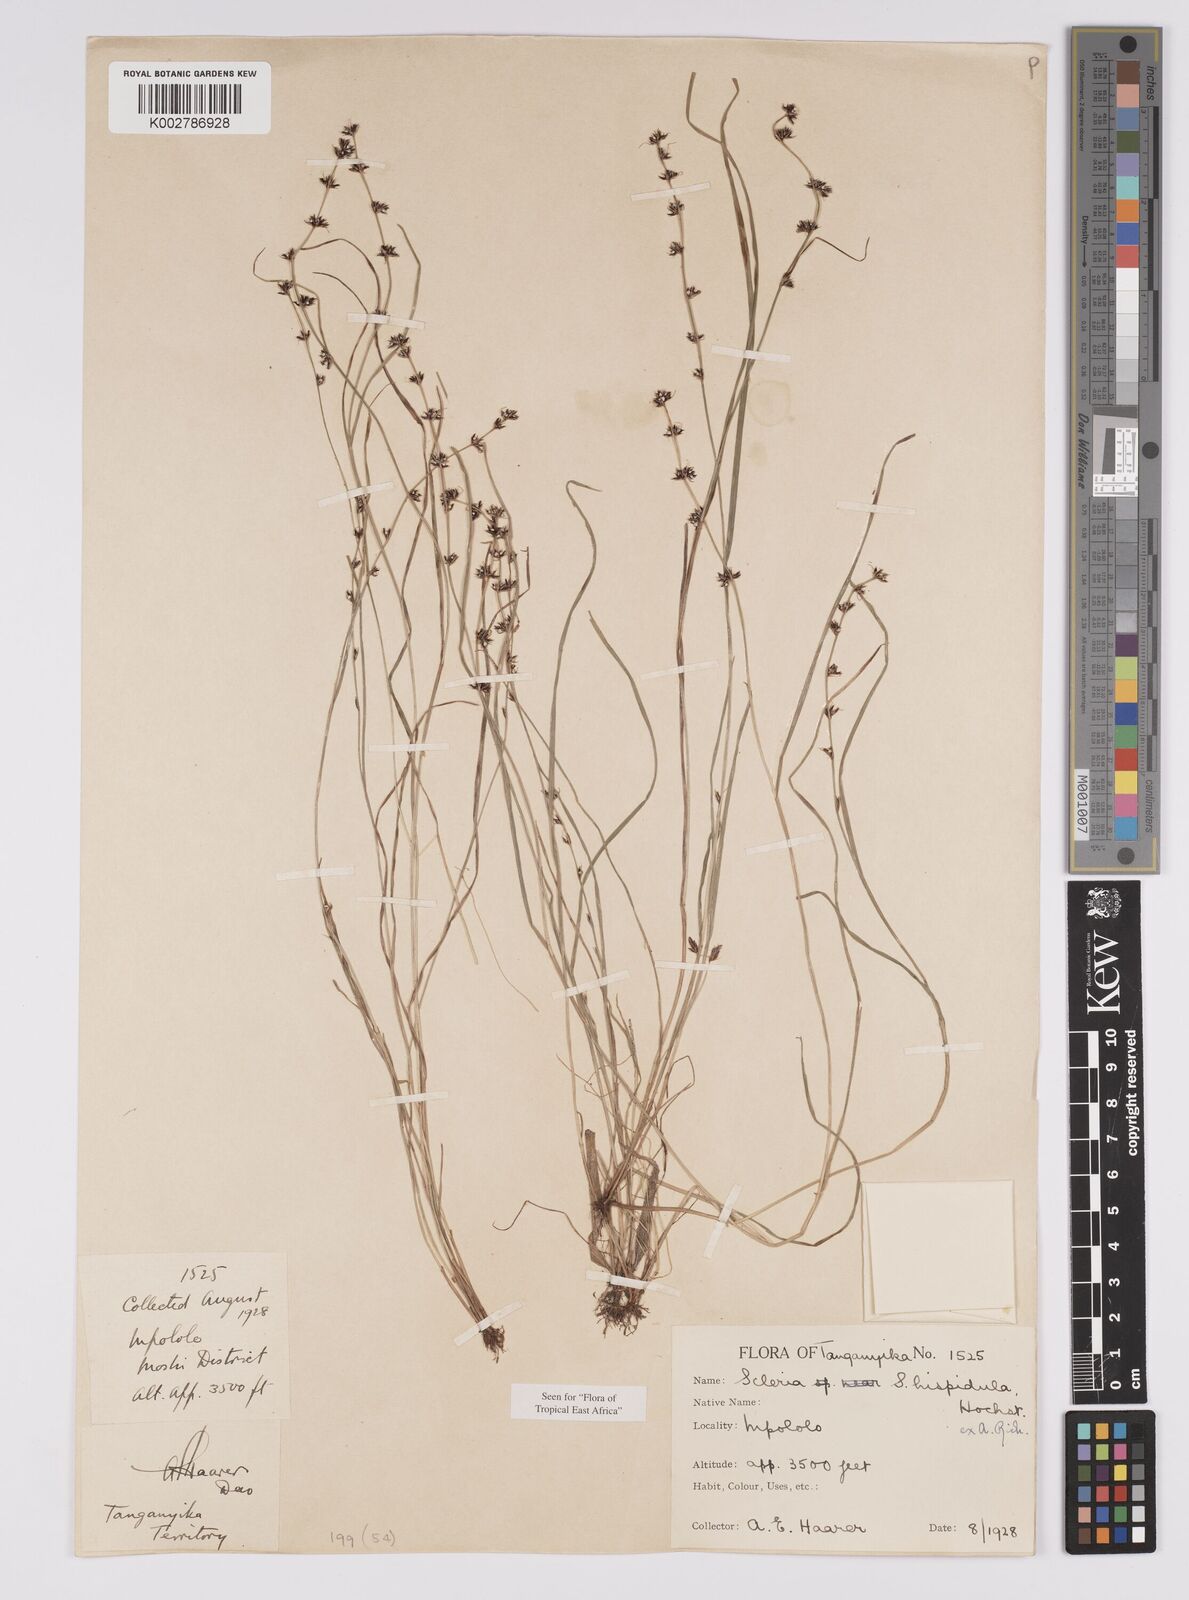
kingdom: Plantae
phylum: Tracheophyta
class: Liliopsida
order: Poales
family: Cyperaceae
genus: Scleria
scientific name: Scleria hispidula
